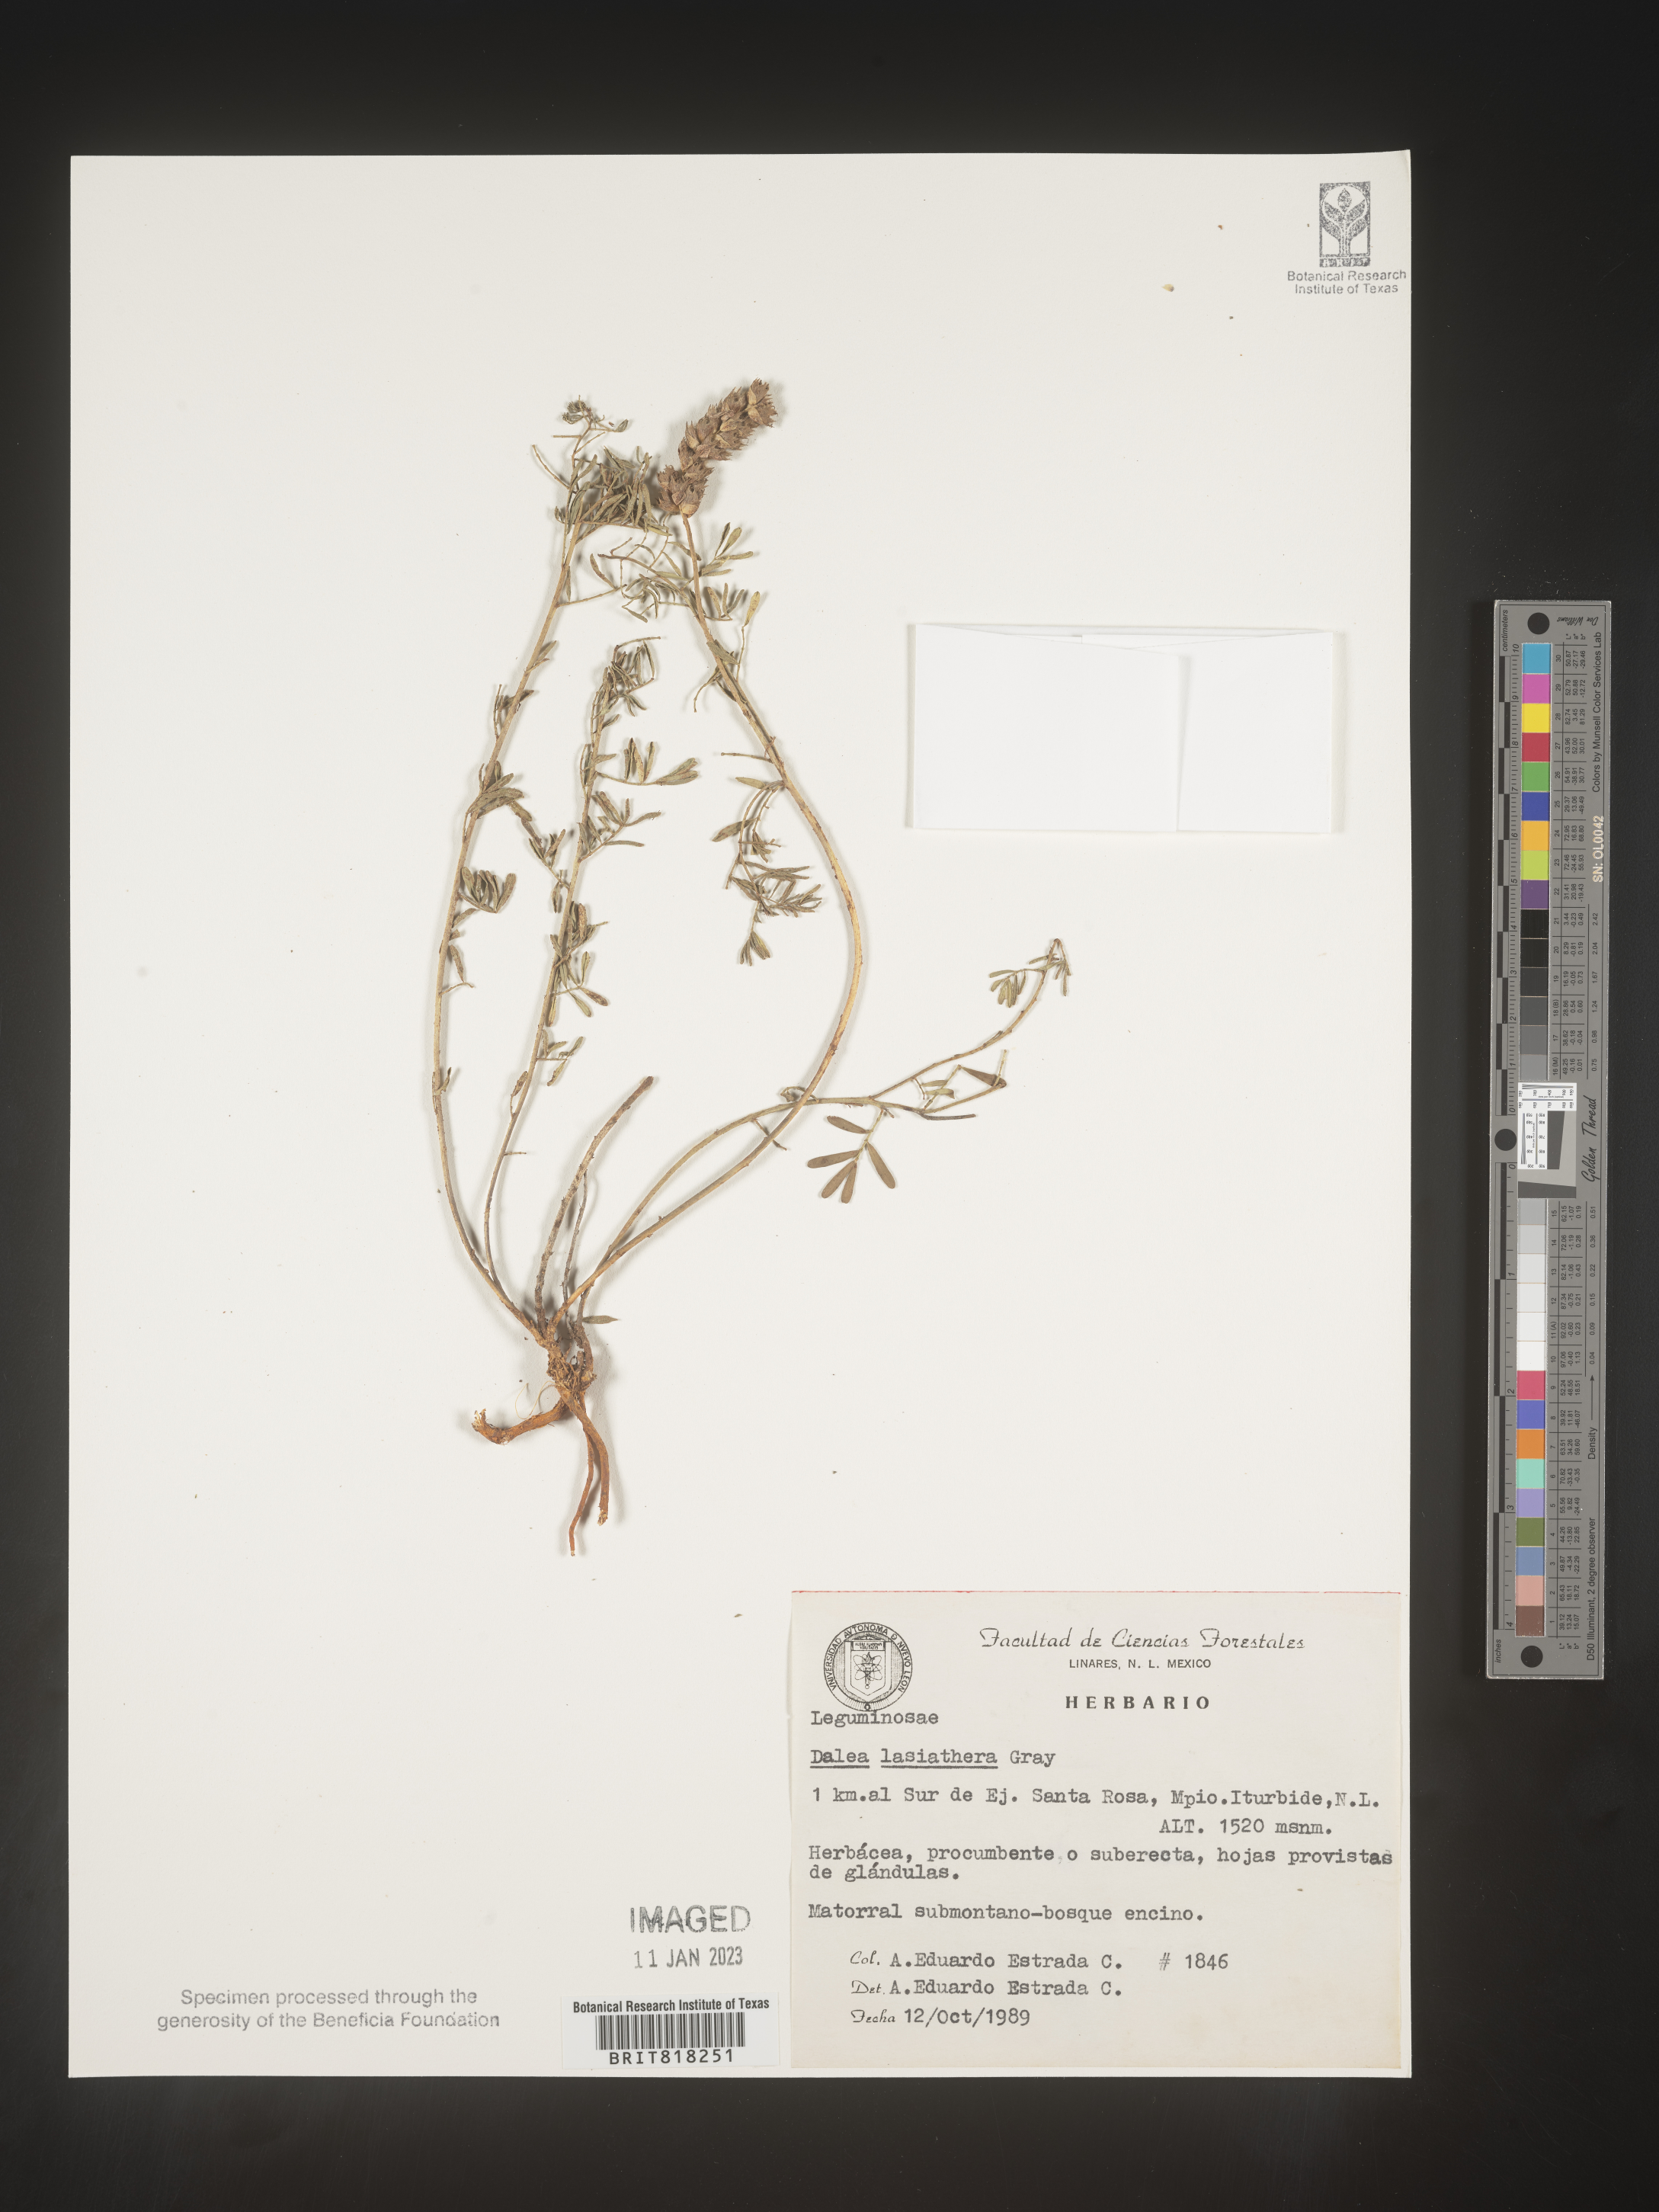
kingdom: Plantae
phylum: Tracheophyta
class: Magnoliopsida
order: Fabales
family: Fabaceae
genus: Dalea
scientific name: Dalea
